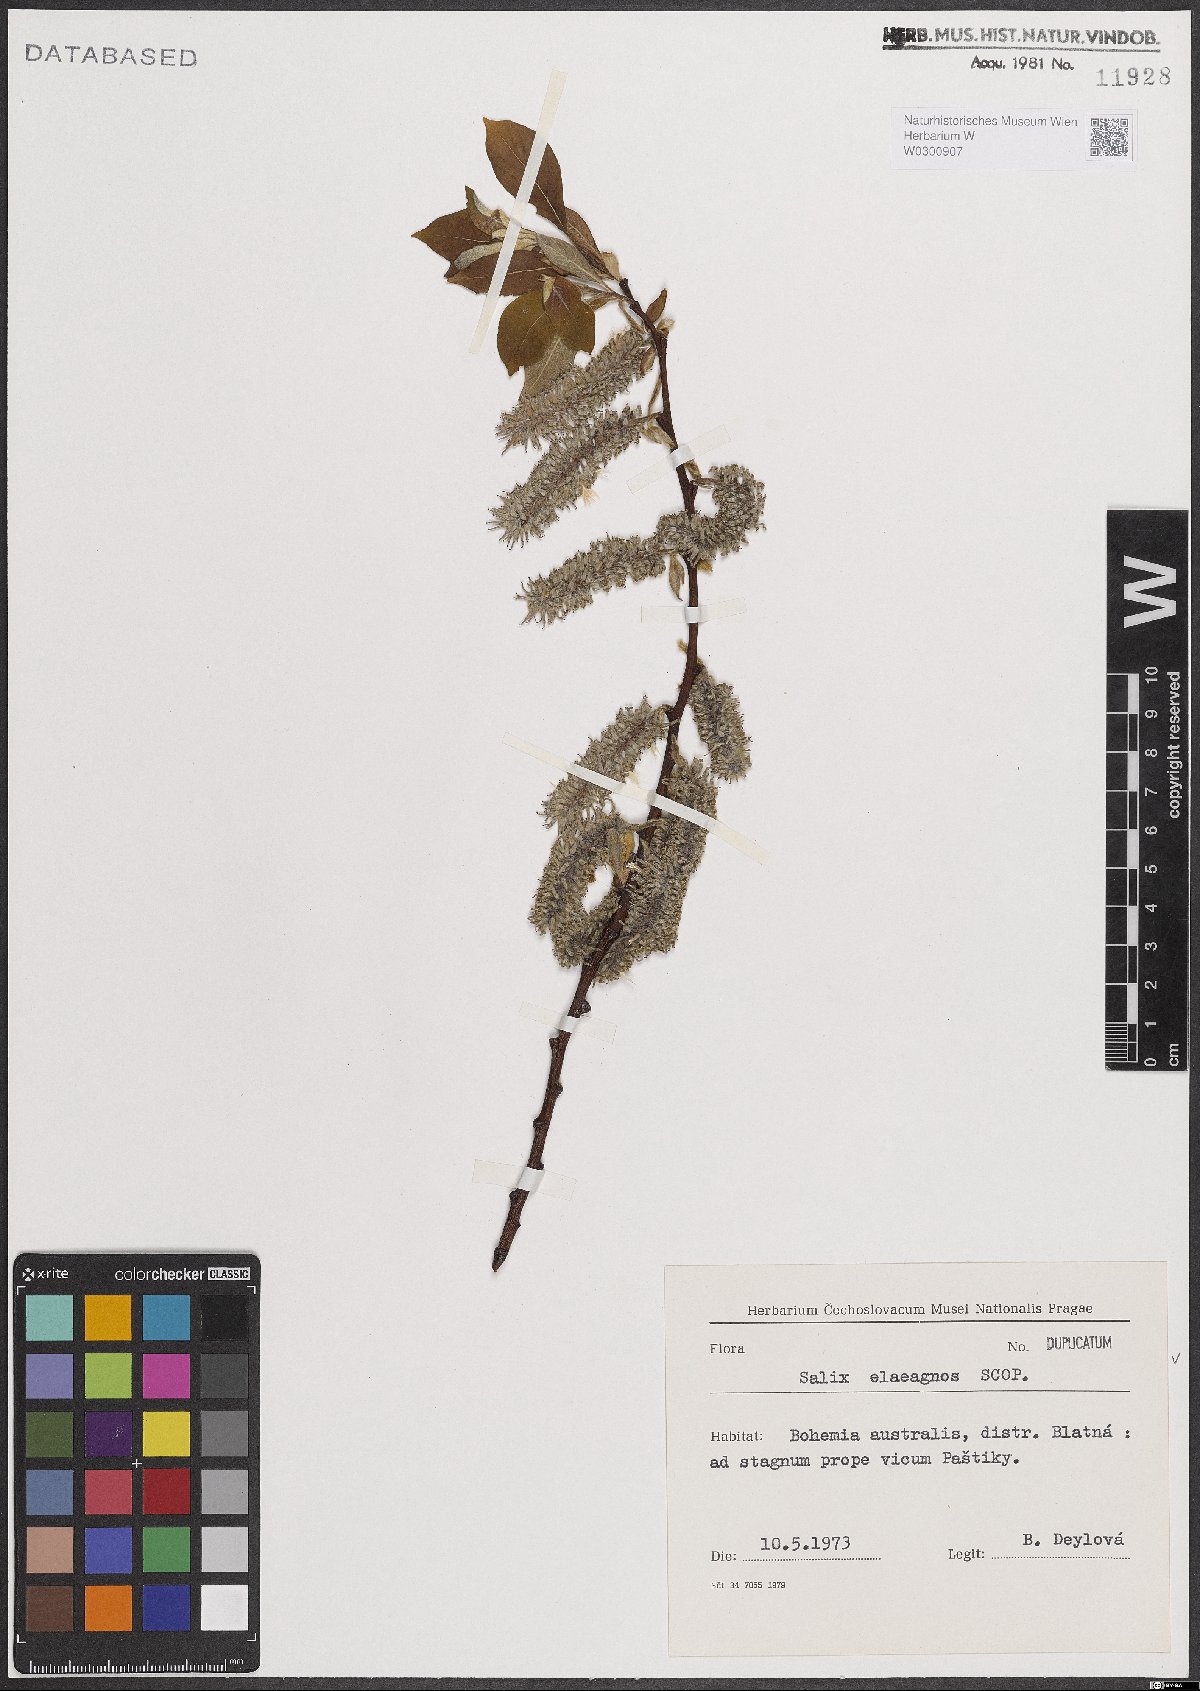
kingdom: Plantae
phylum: Tracheophyta
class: Magnoliopsida
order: Malpighiales
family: Salicaceae
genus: Salix
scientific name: Salix eleagnos
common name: Elaeagnus willow
